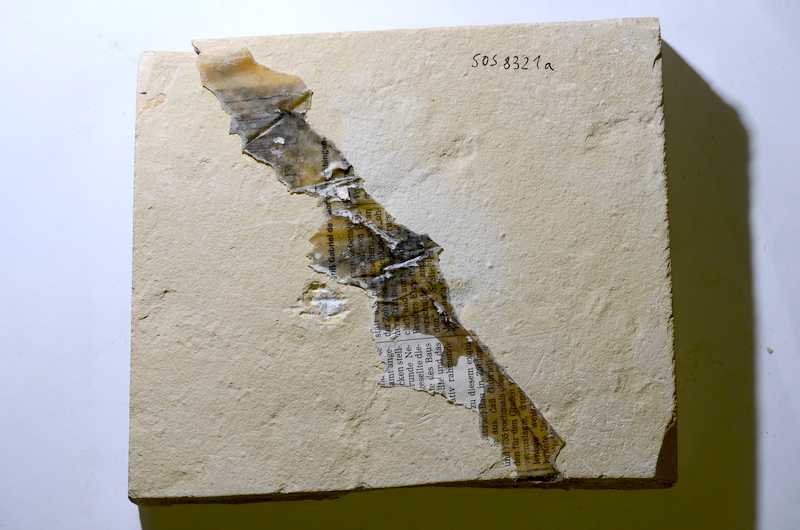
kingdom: Animalia
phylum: Chordata
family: Pycnodontidae
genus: Proscinetes
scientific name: Proscinetes elegans
